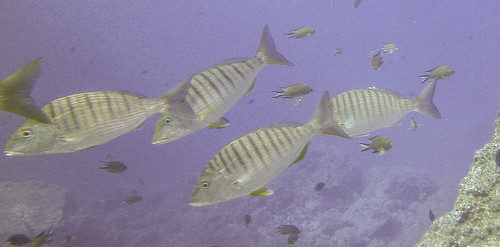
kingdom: Animalia
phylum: Chordata
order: Perciformes
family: Sparidae
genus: Lithognathus
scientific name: Lithognathus mormyrus
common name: Sand steenbras
